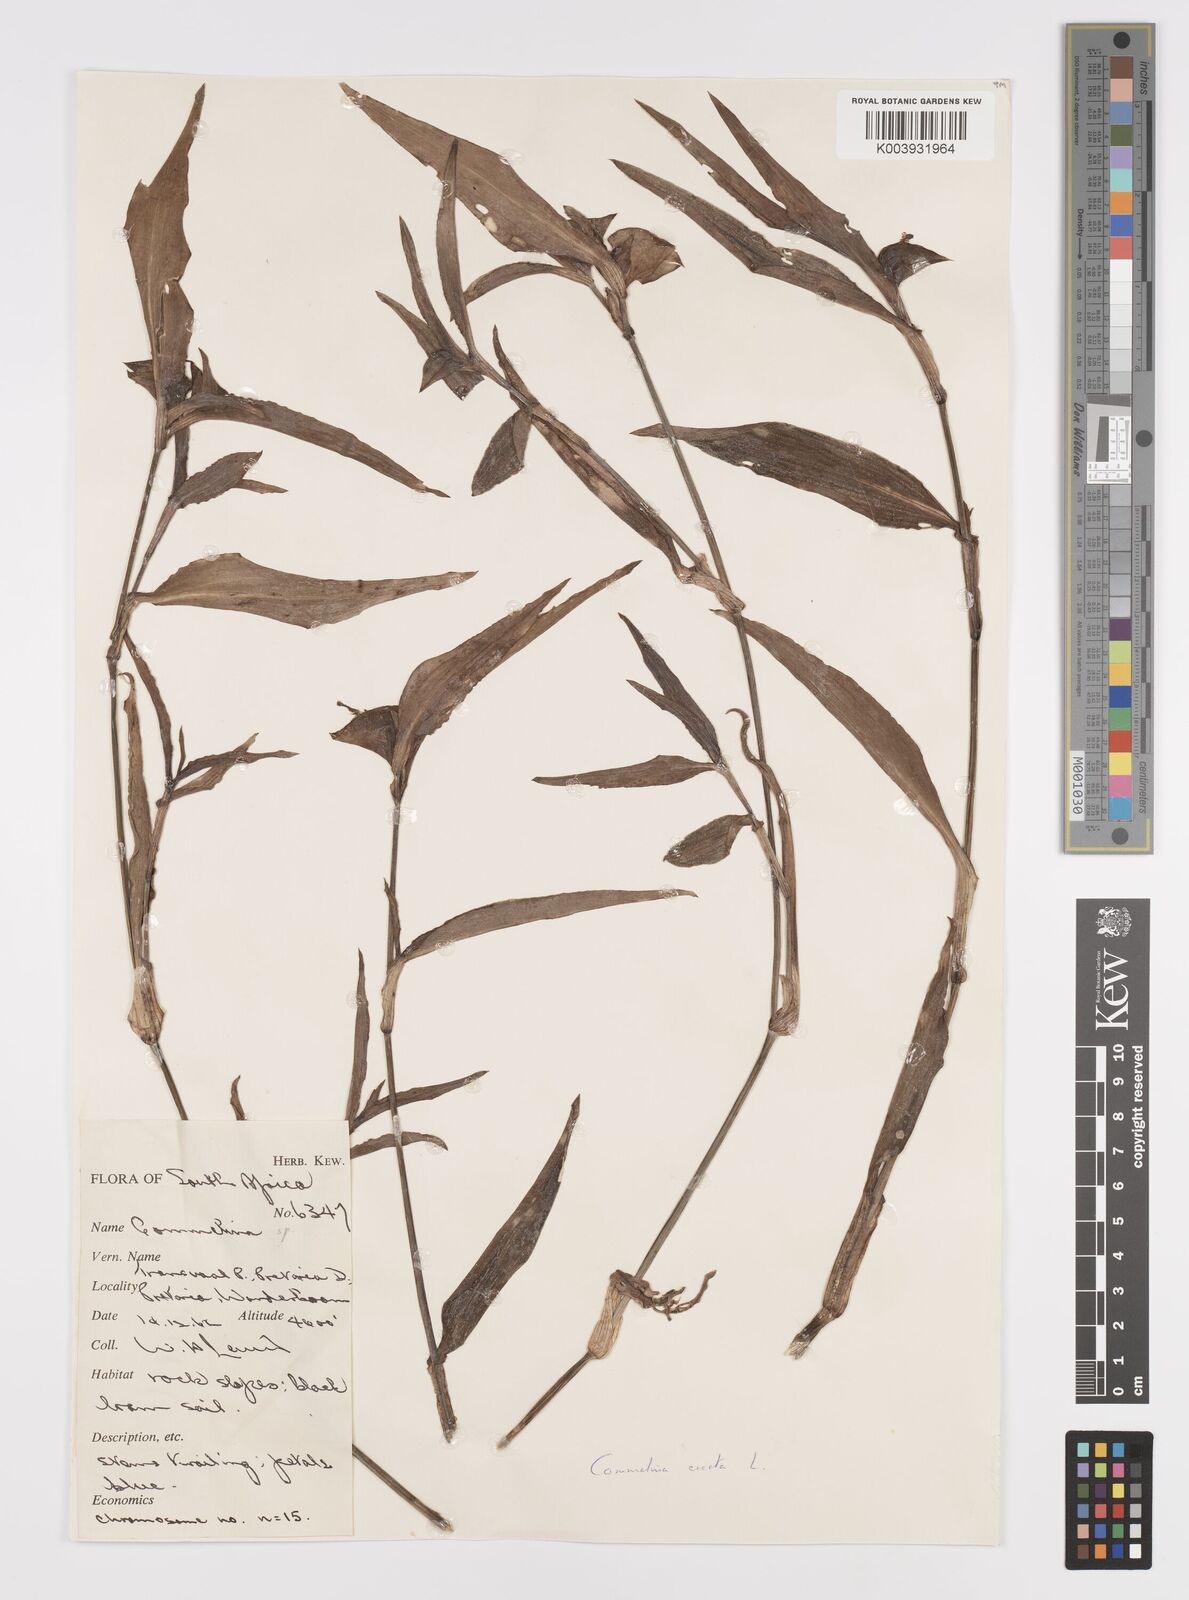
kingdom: Plantae
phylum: Tracheophyta
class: Liliopsida
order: Commelinales
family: Commelinaceae
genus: Commelina
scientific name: Commelina erecta
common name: Blousel blommetjie
